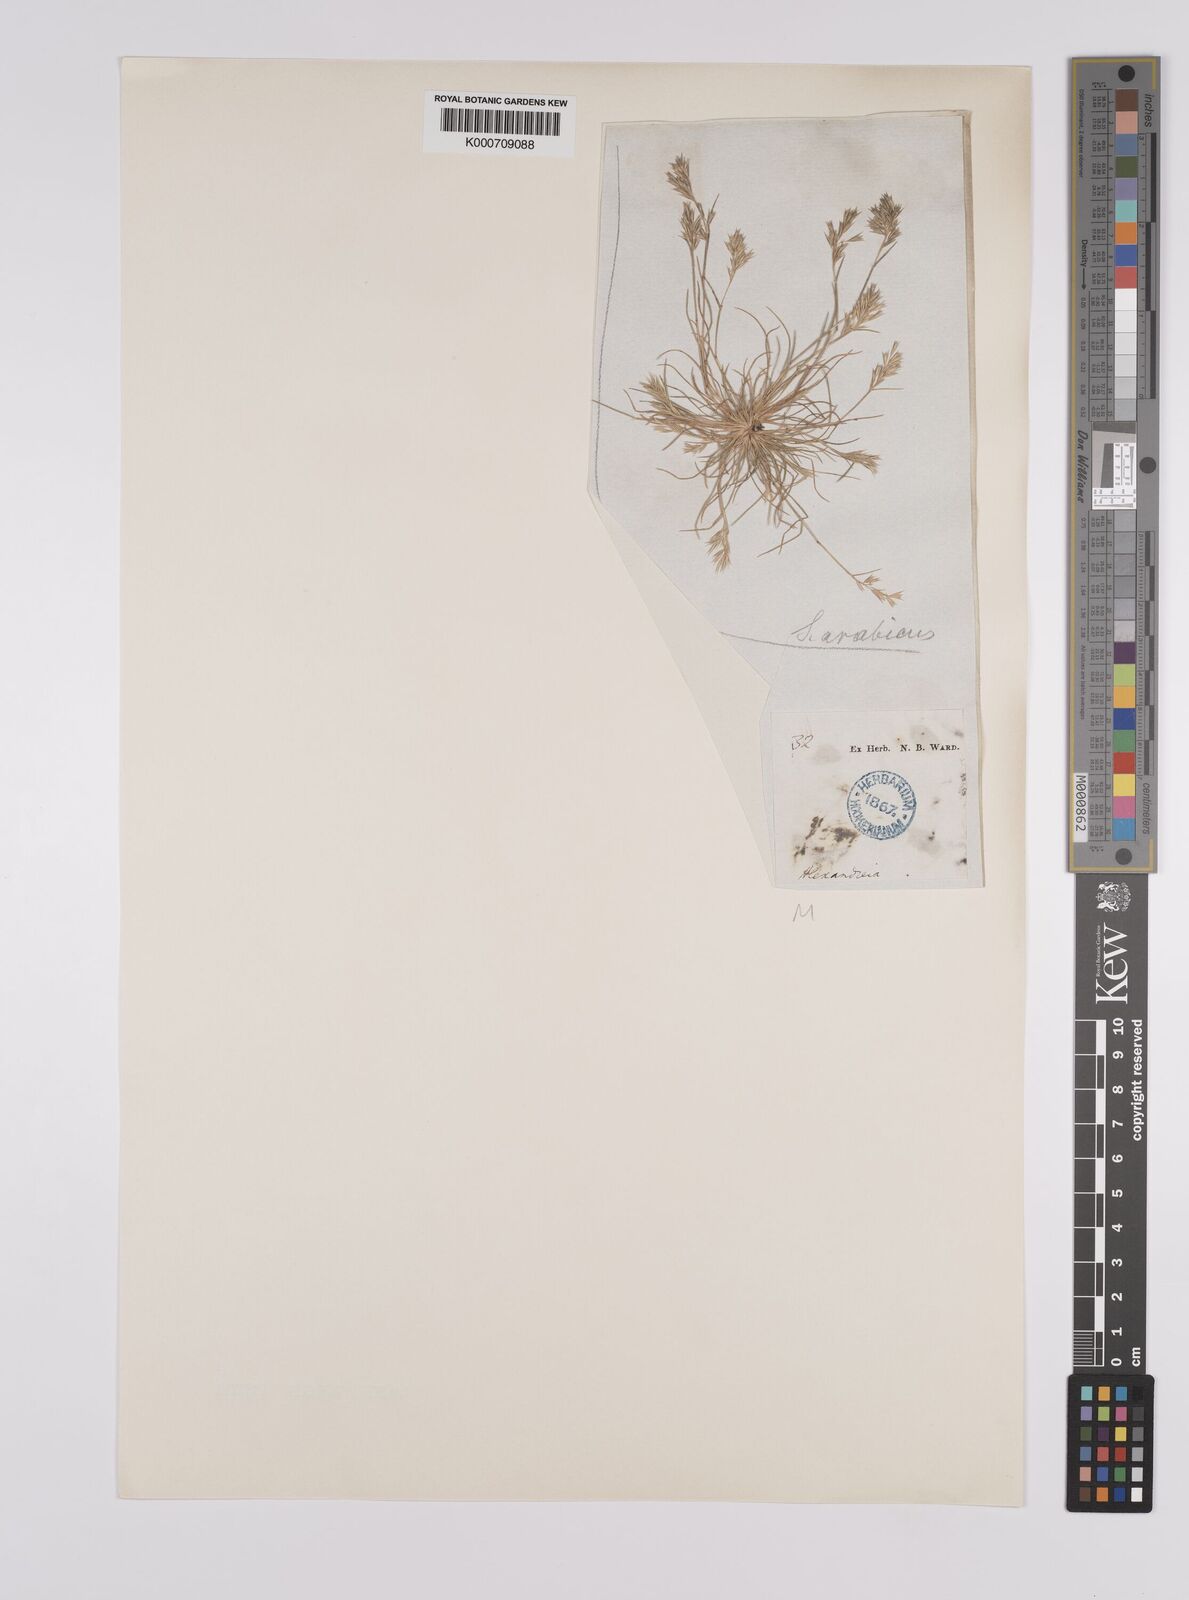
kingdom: Plantae
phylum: Tracheophyta
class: Liliopsida
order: Poales
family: Poaceae
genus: Schismus
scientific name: Schismus arabicus
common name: Arabian schismus
